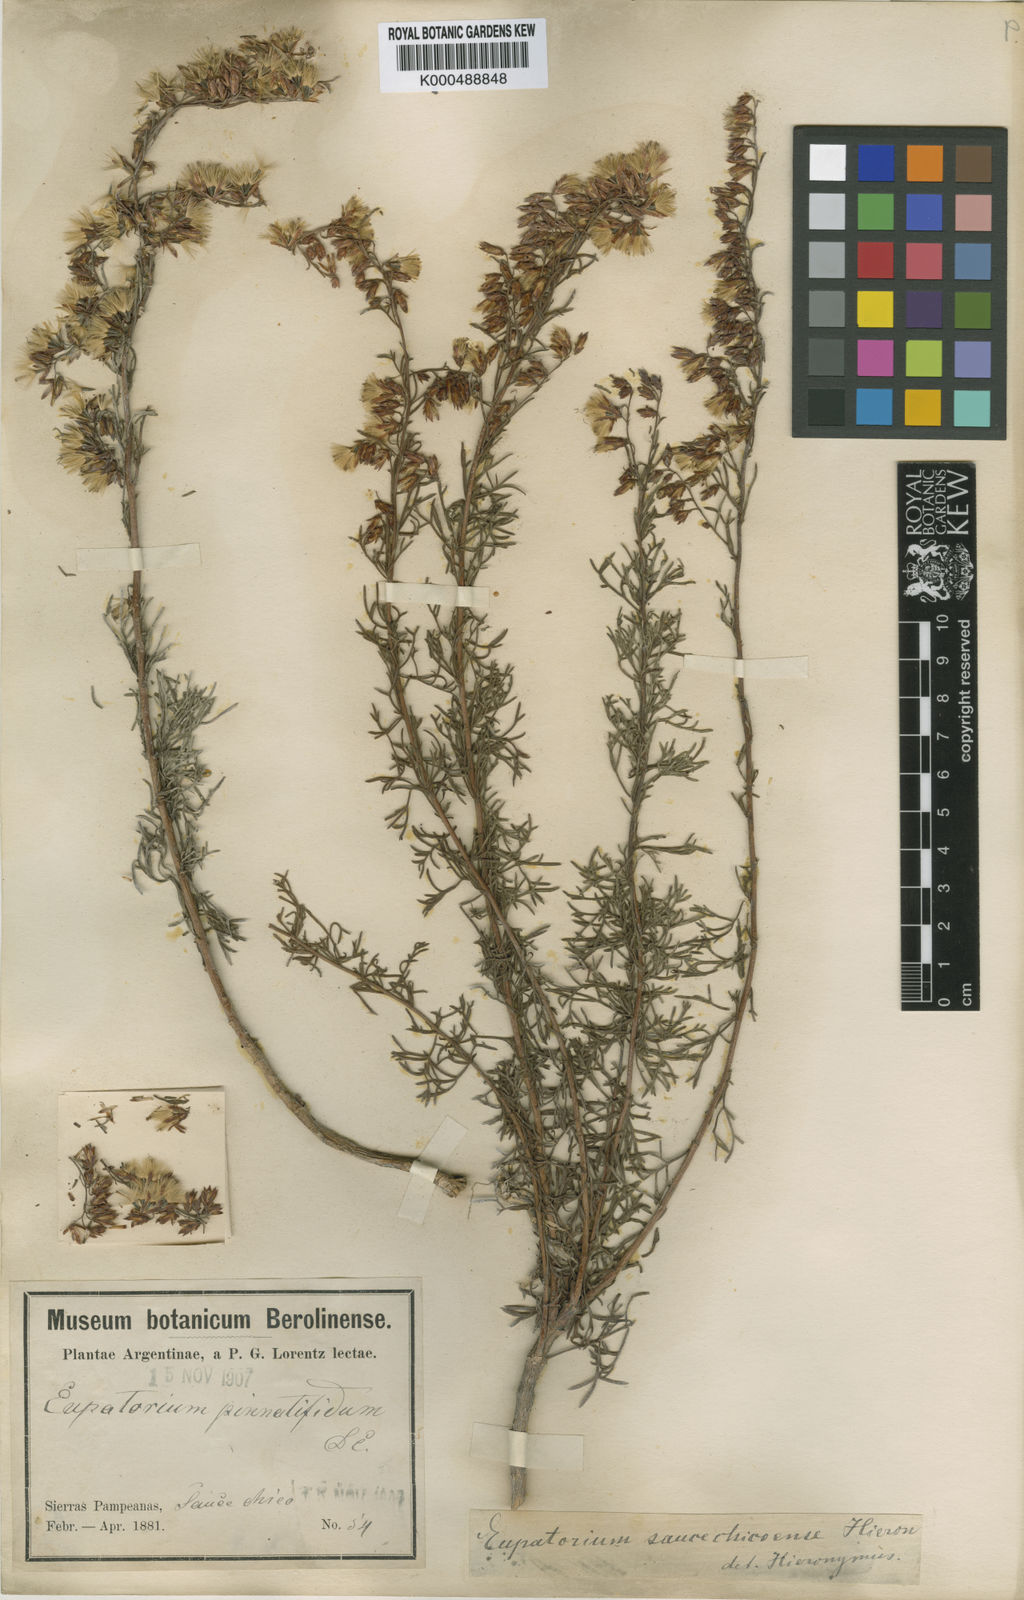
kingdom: Plantae
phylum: Tracheophyta
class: Magnoliopsida
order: Asterales
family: Asteraceae
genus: Acanthostyles
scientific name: Acanthostyles saucechicoensis
